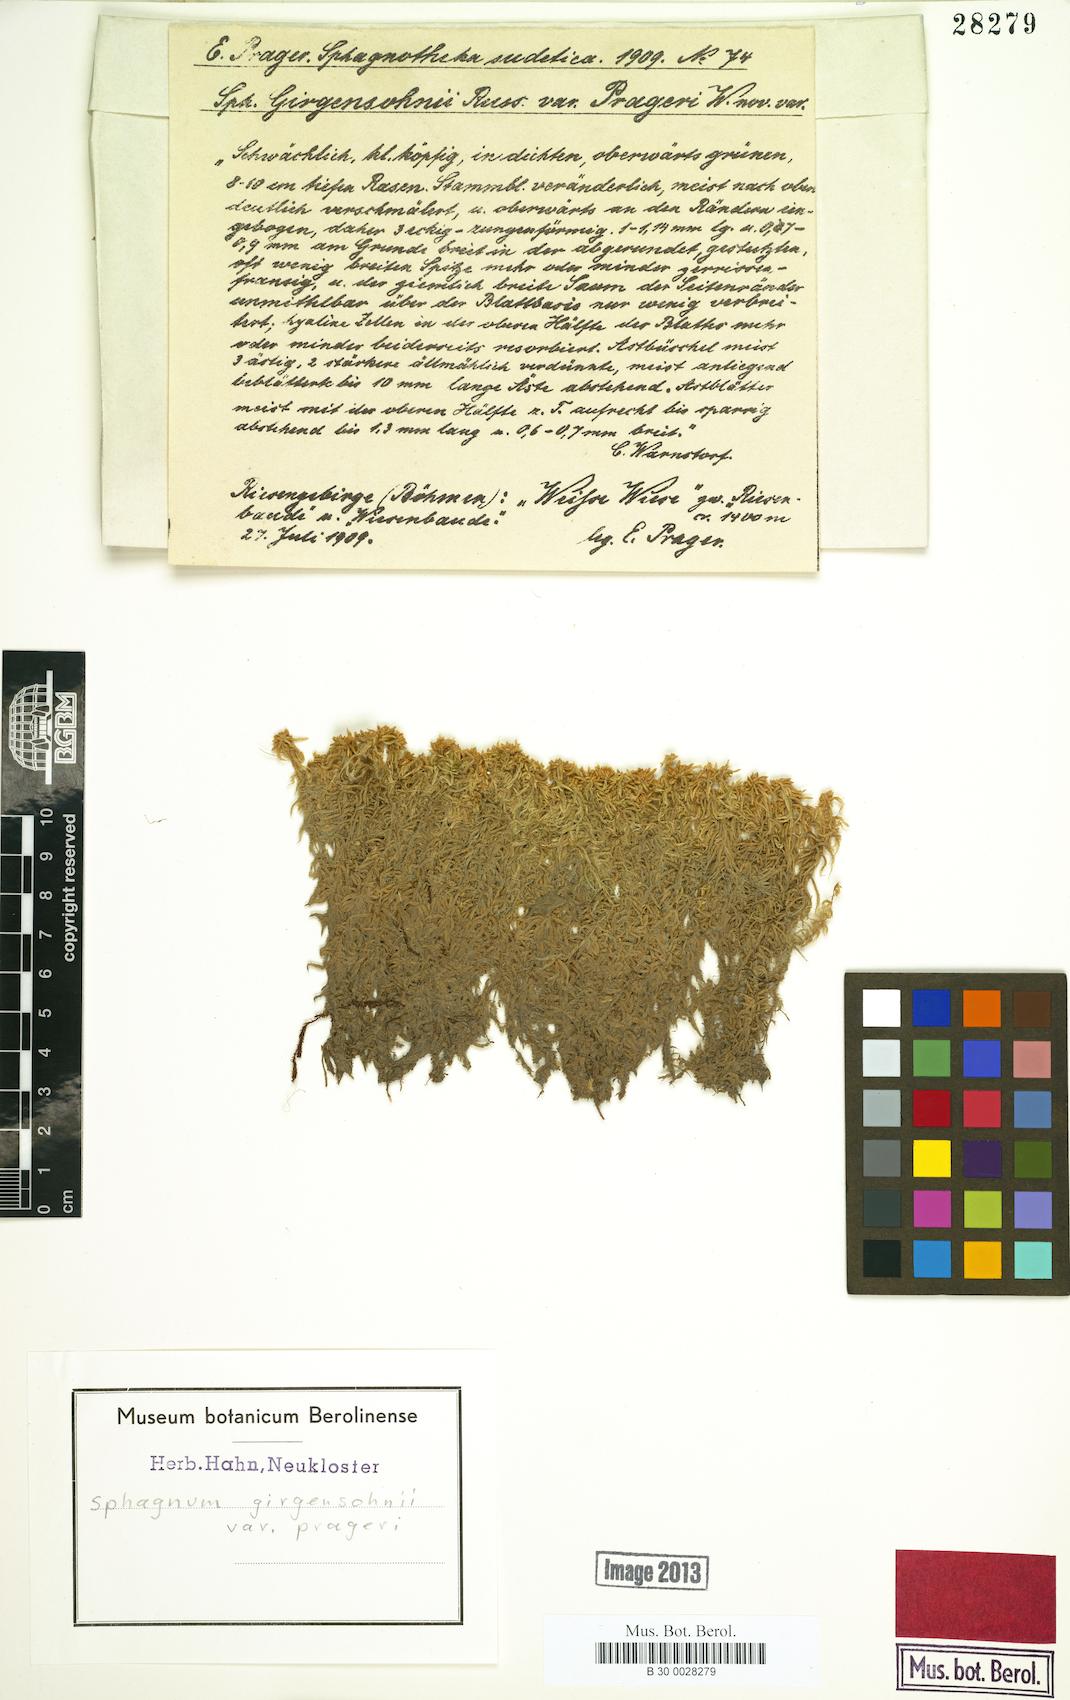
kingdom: Plantae
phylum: Bryophyta
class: Sphagnopsida
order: Sphagnales
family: Sphagnaceae
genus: Sphagnum
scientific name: Sphagnum girgensohnii
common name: Girgensohn's peat moss
